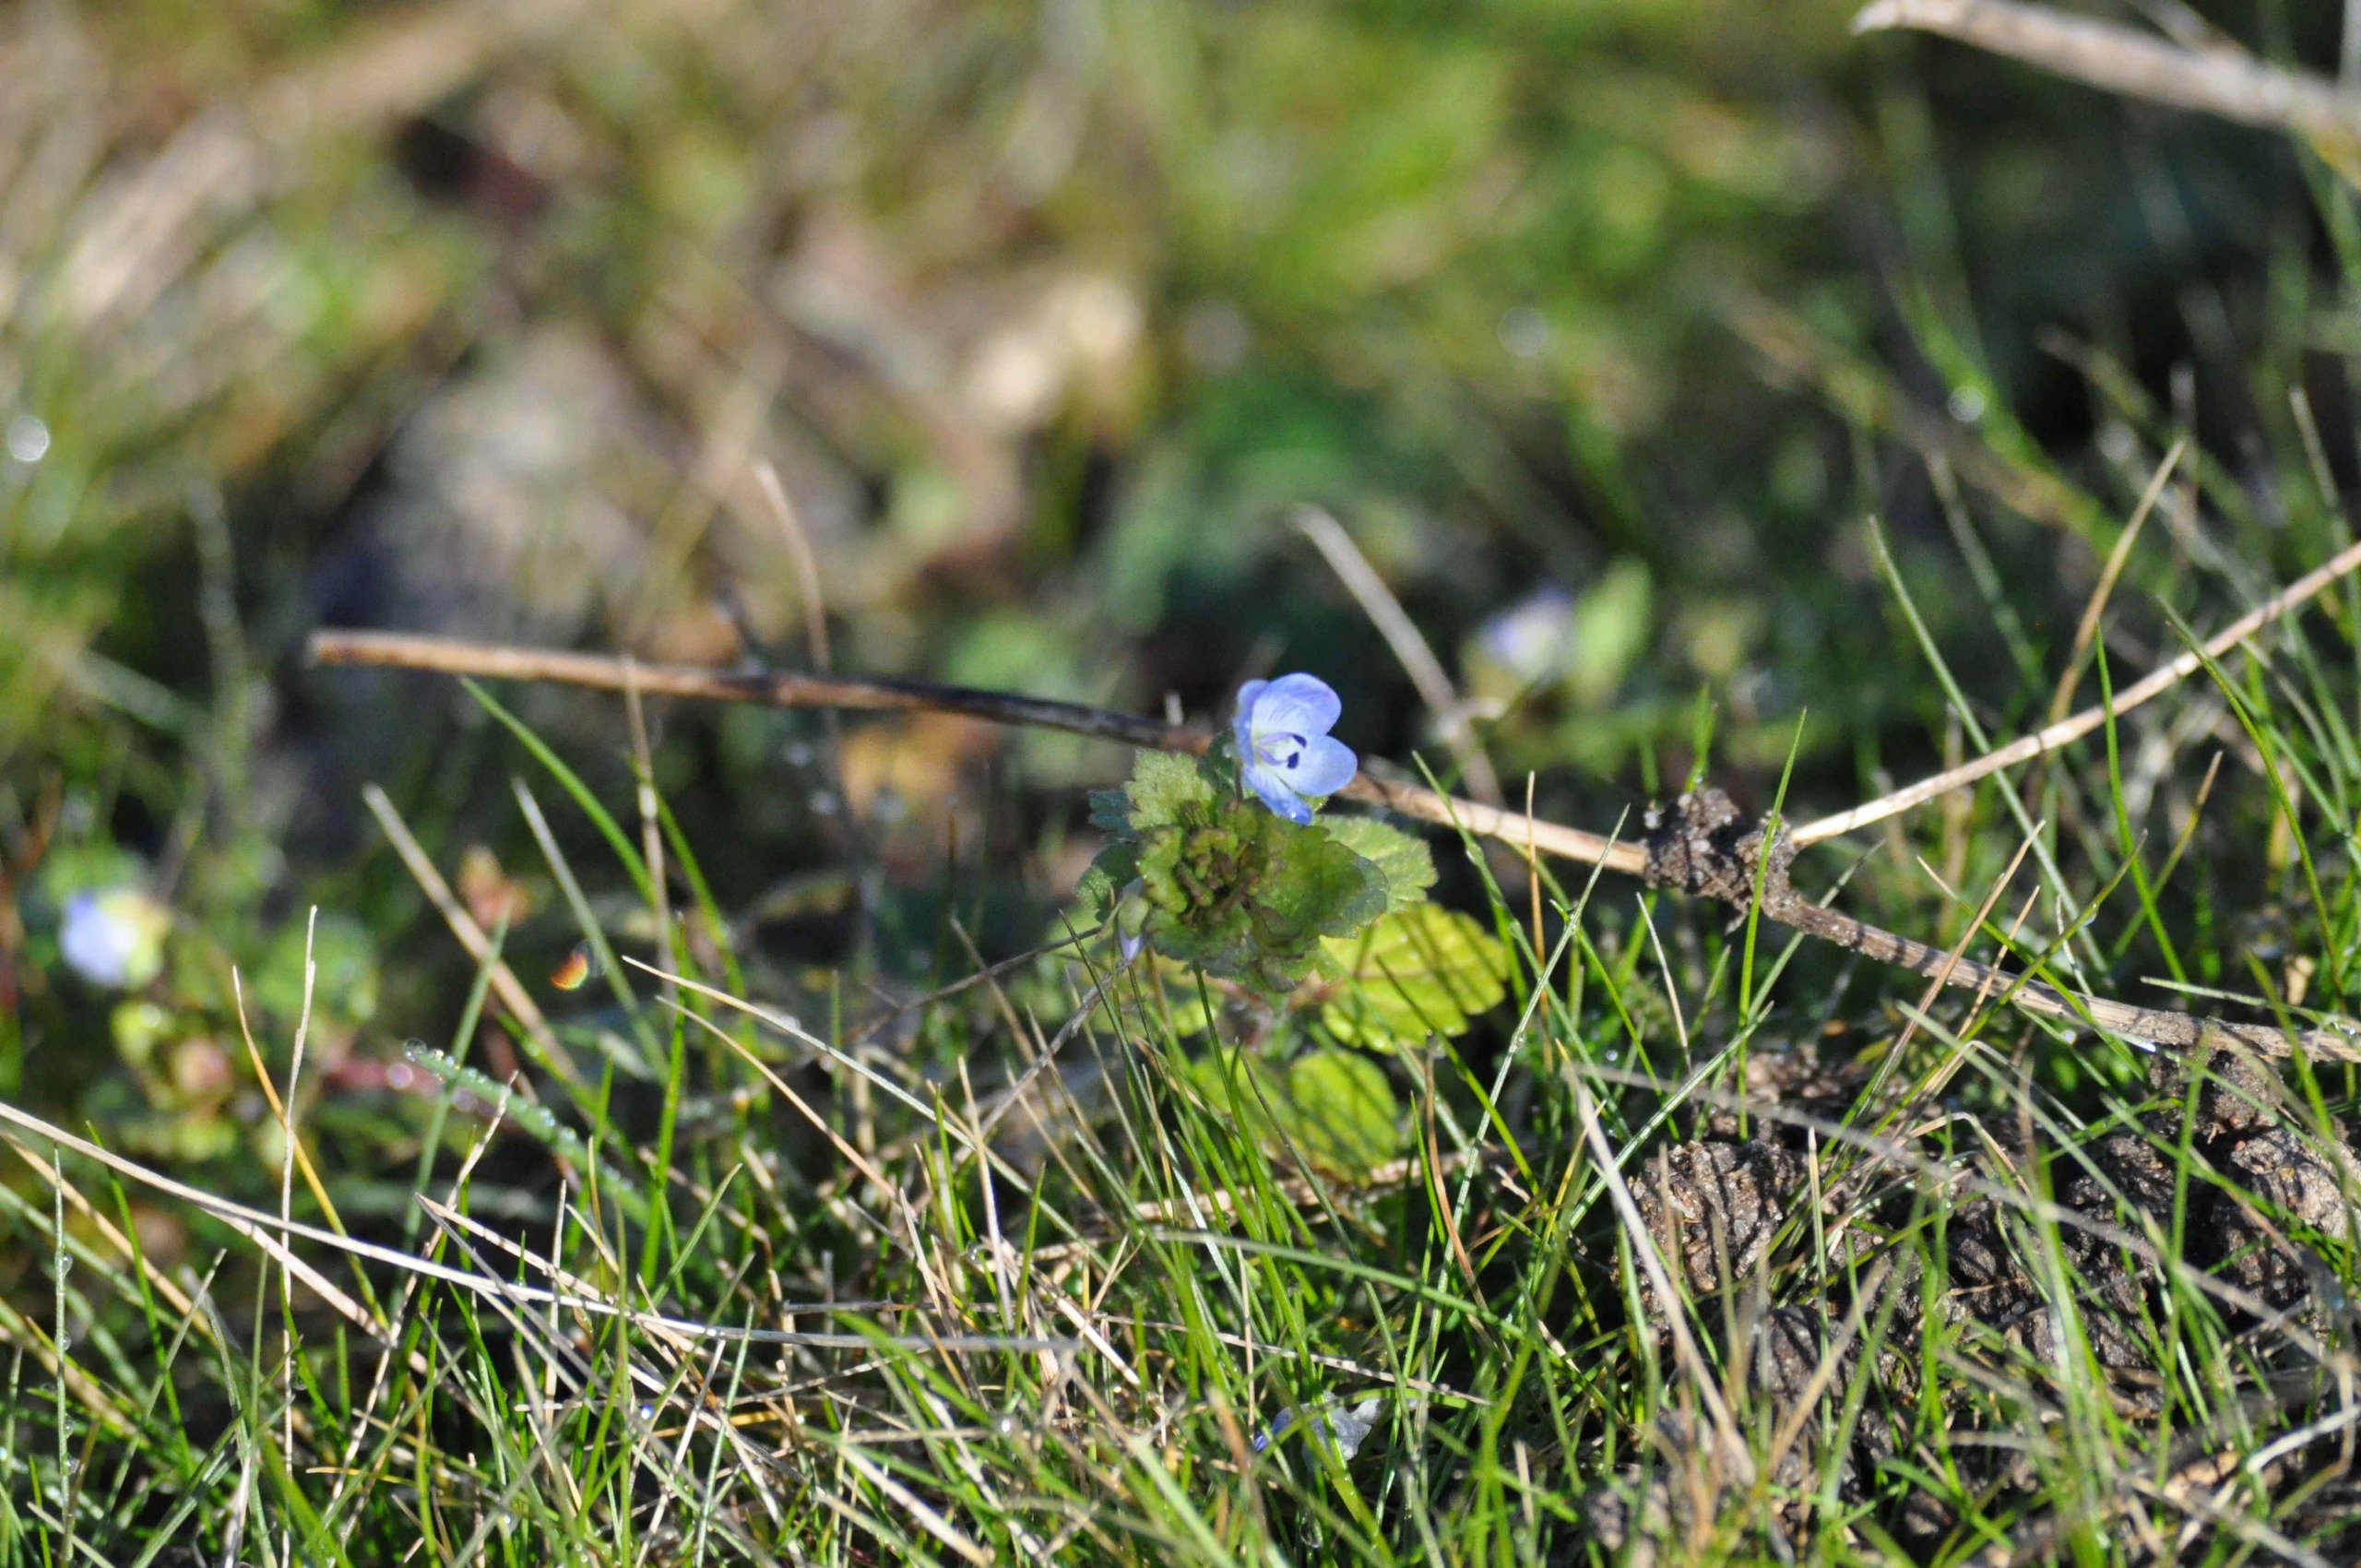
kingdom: Plantae
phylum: Tracheophyta
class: Magnoliopsida
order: Lamiales
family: Plantaginaceae
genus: Veronica
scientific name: Veronica persica
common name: Storkronet ærenpris
